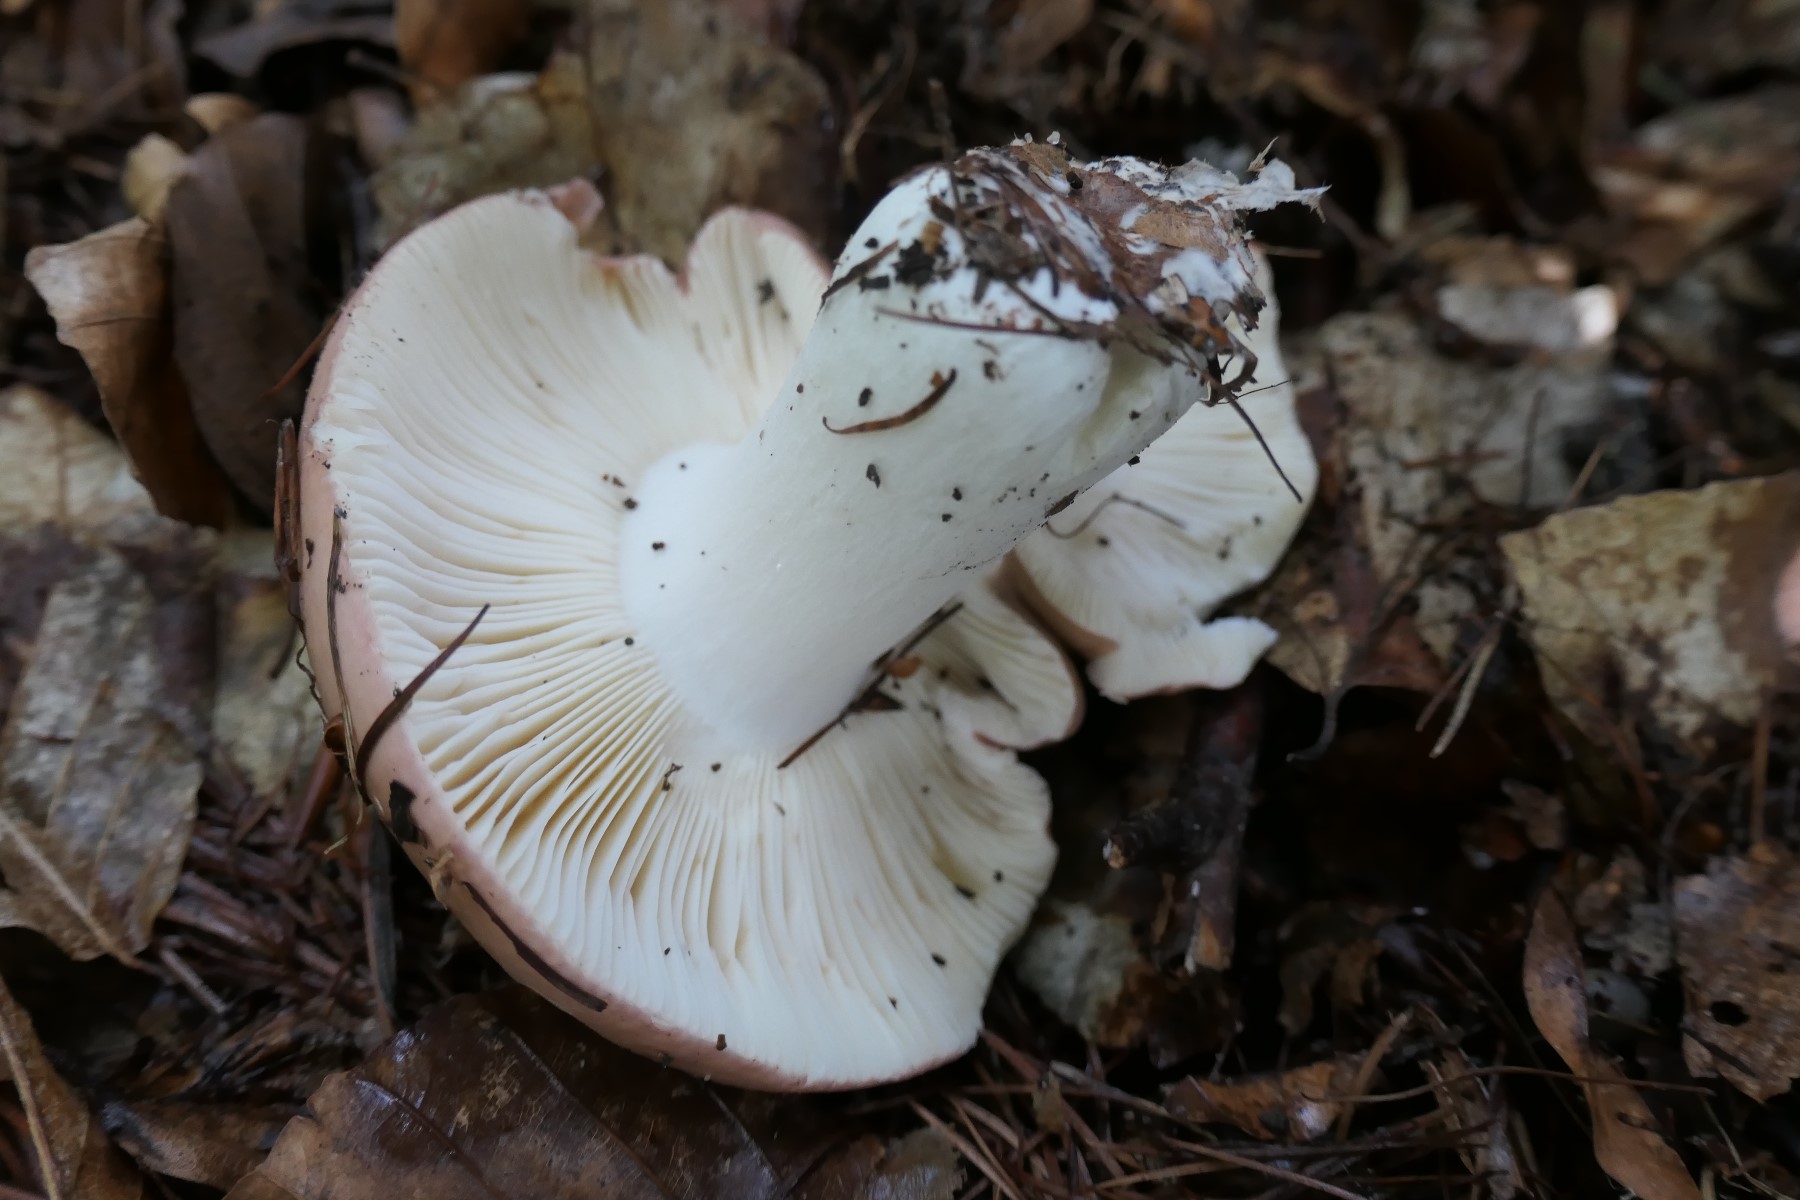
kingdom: Fungi
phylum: Basidiomycota
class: Agaricomycetes
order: Russulales
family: Russulaceae
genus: Russula
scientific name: Russula curtipes
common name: kortstokket skørhat
